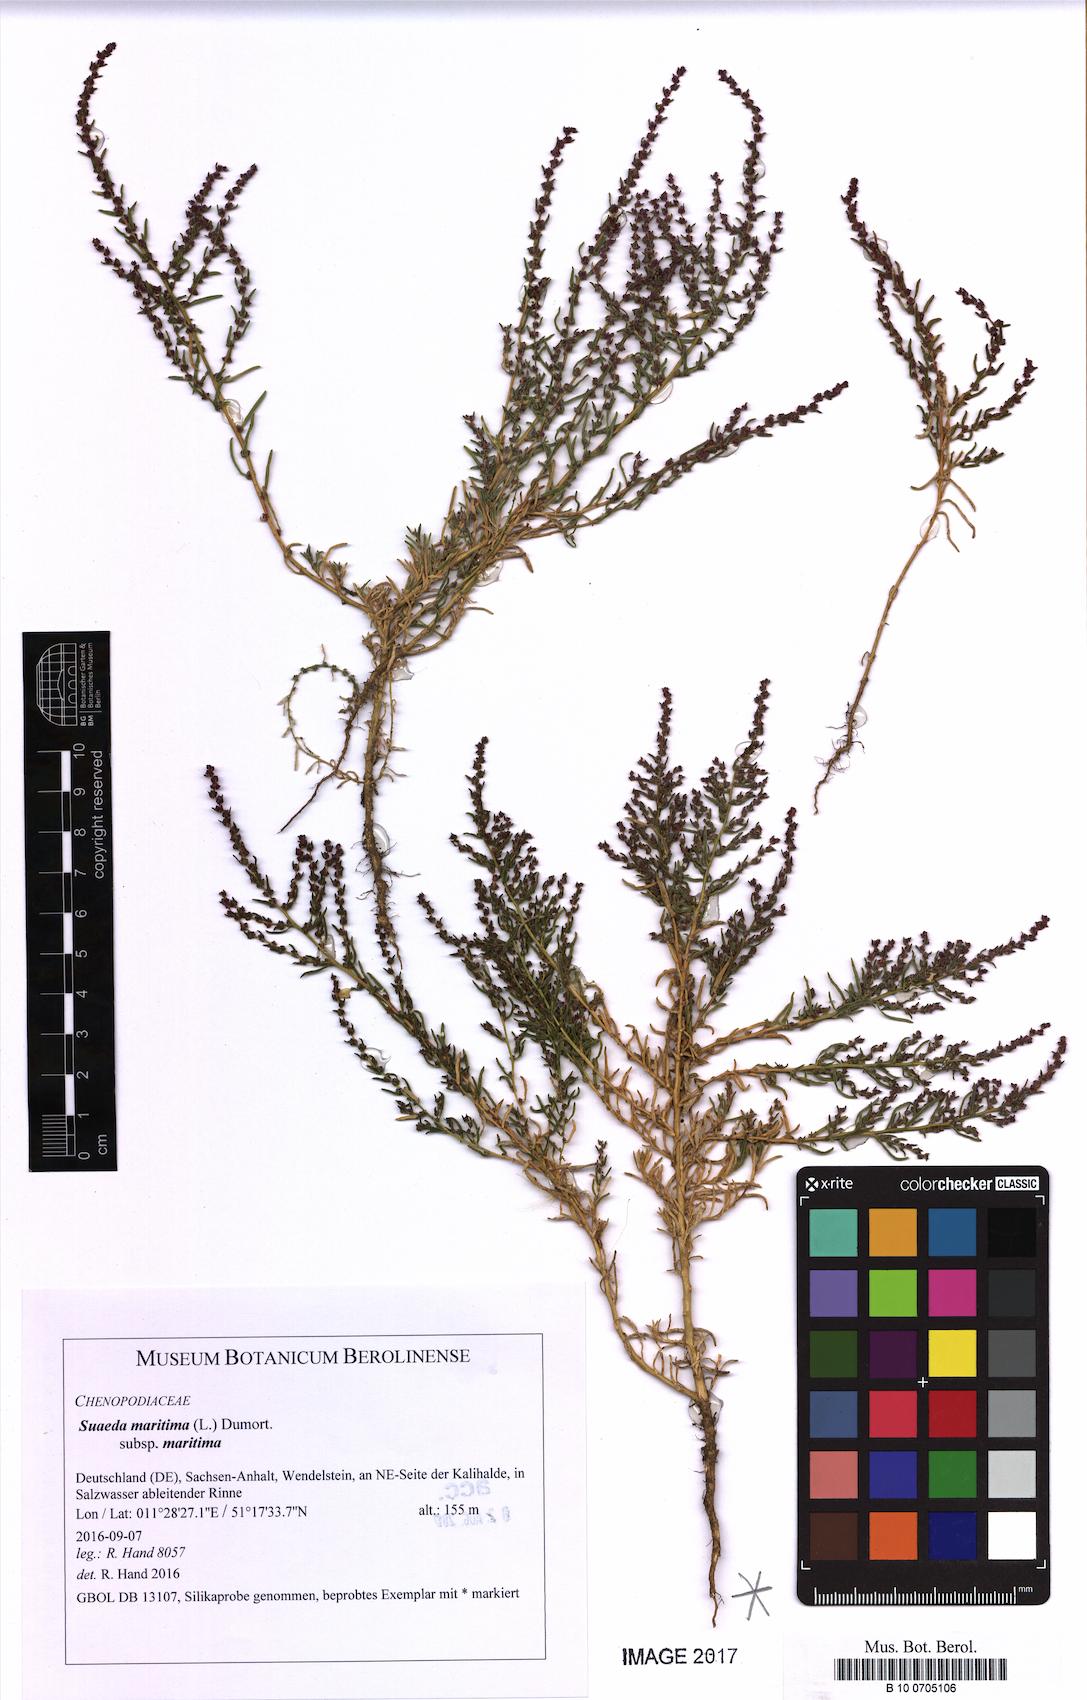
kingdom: Plantae
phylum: Tracheophyta
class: Magnoliopsida
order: Caryophyllales
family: Amaranthaceae
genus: Suaeda
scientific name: Suaeda maritima
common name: Annual sea-blite
